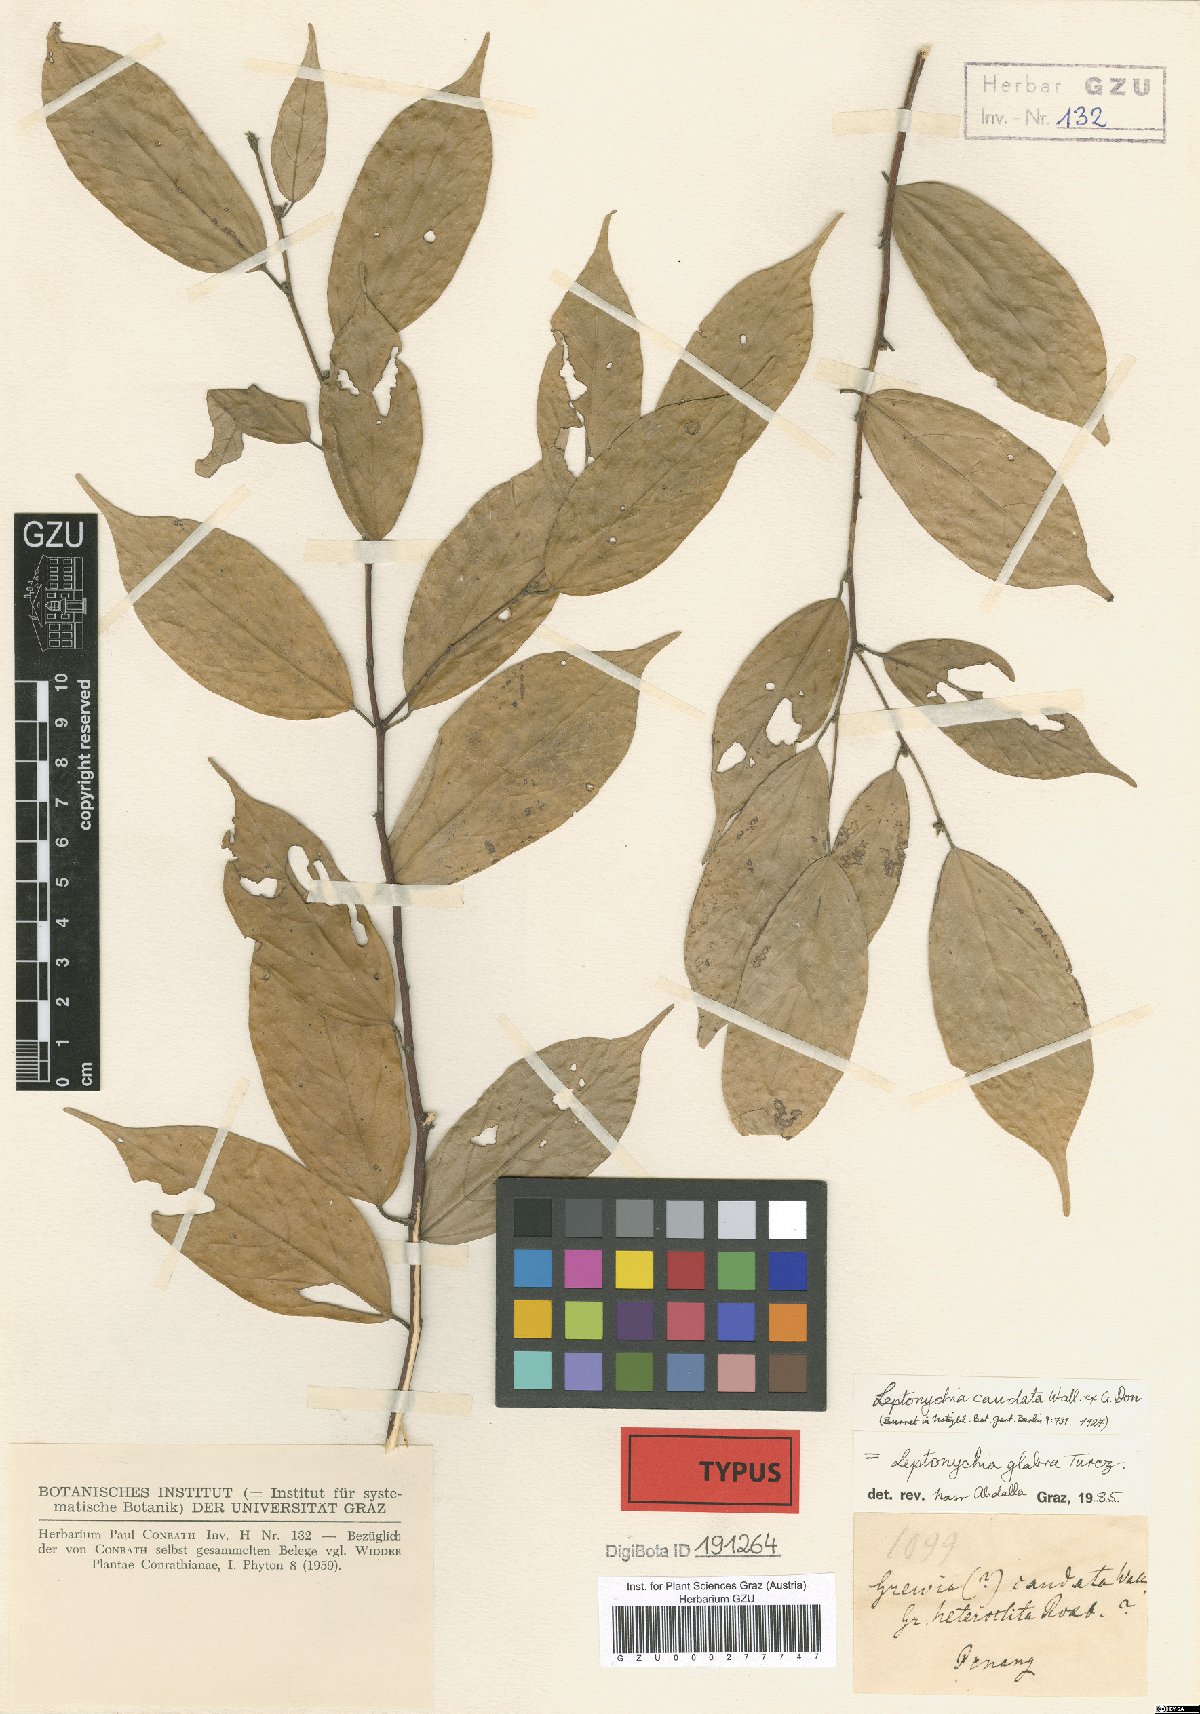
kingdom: Plantae
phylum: Tracheophyta
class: Magnoliopsida
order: Malvales
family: Malvaceae
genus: Leptonychia
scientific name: Leptonychia caudata
